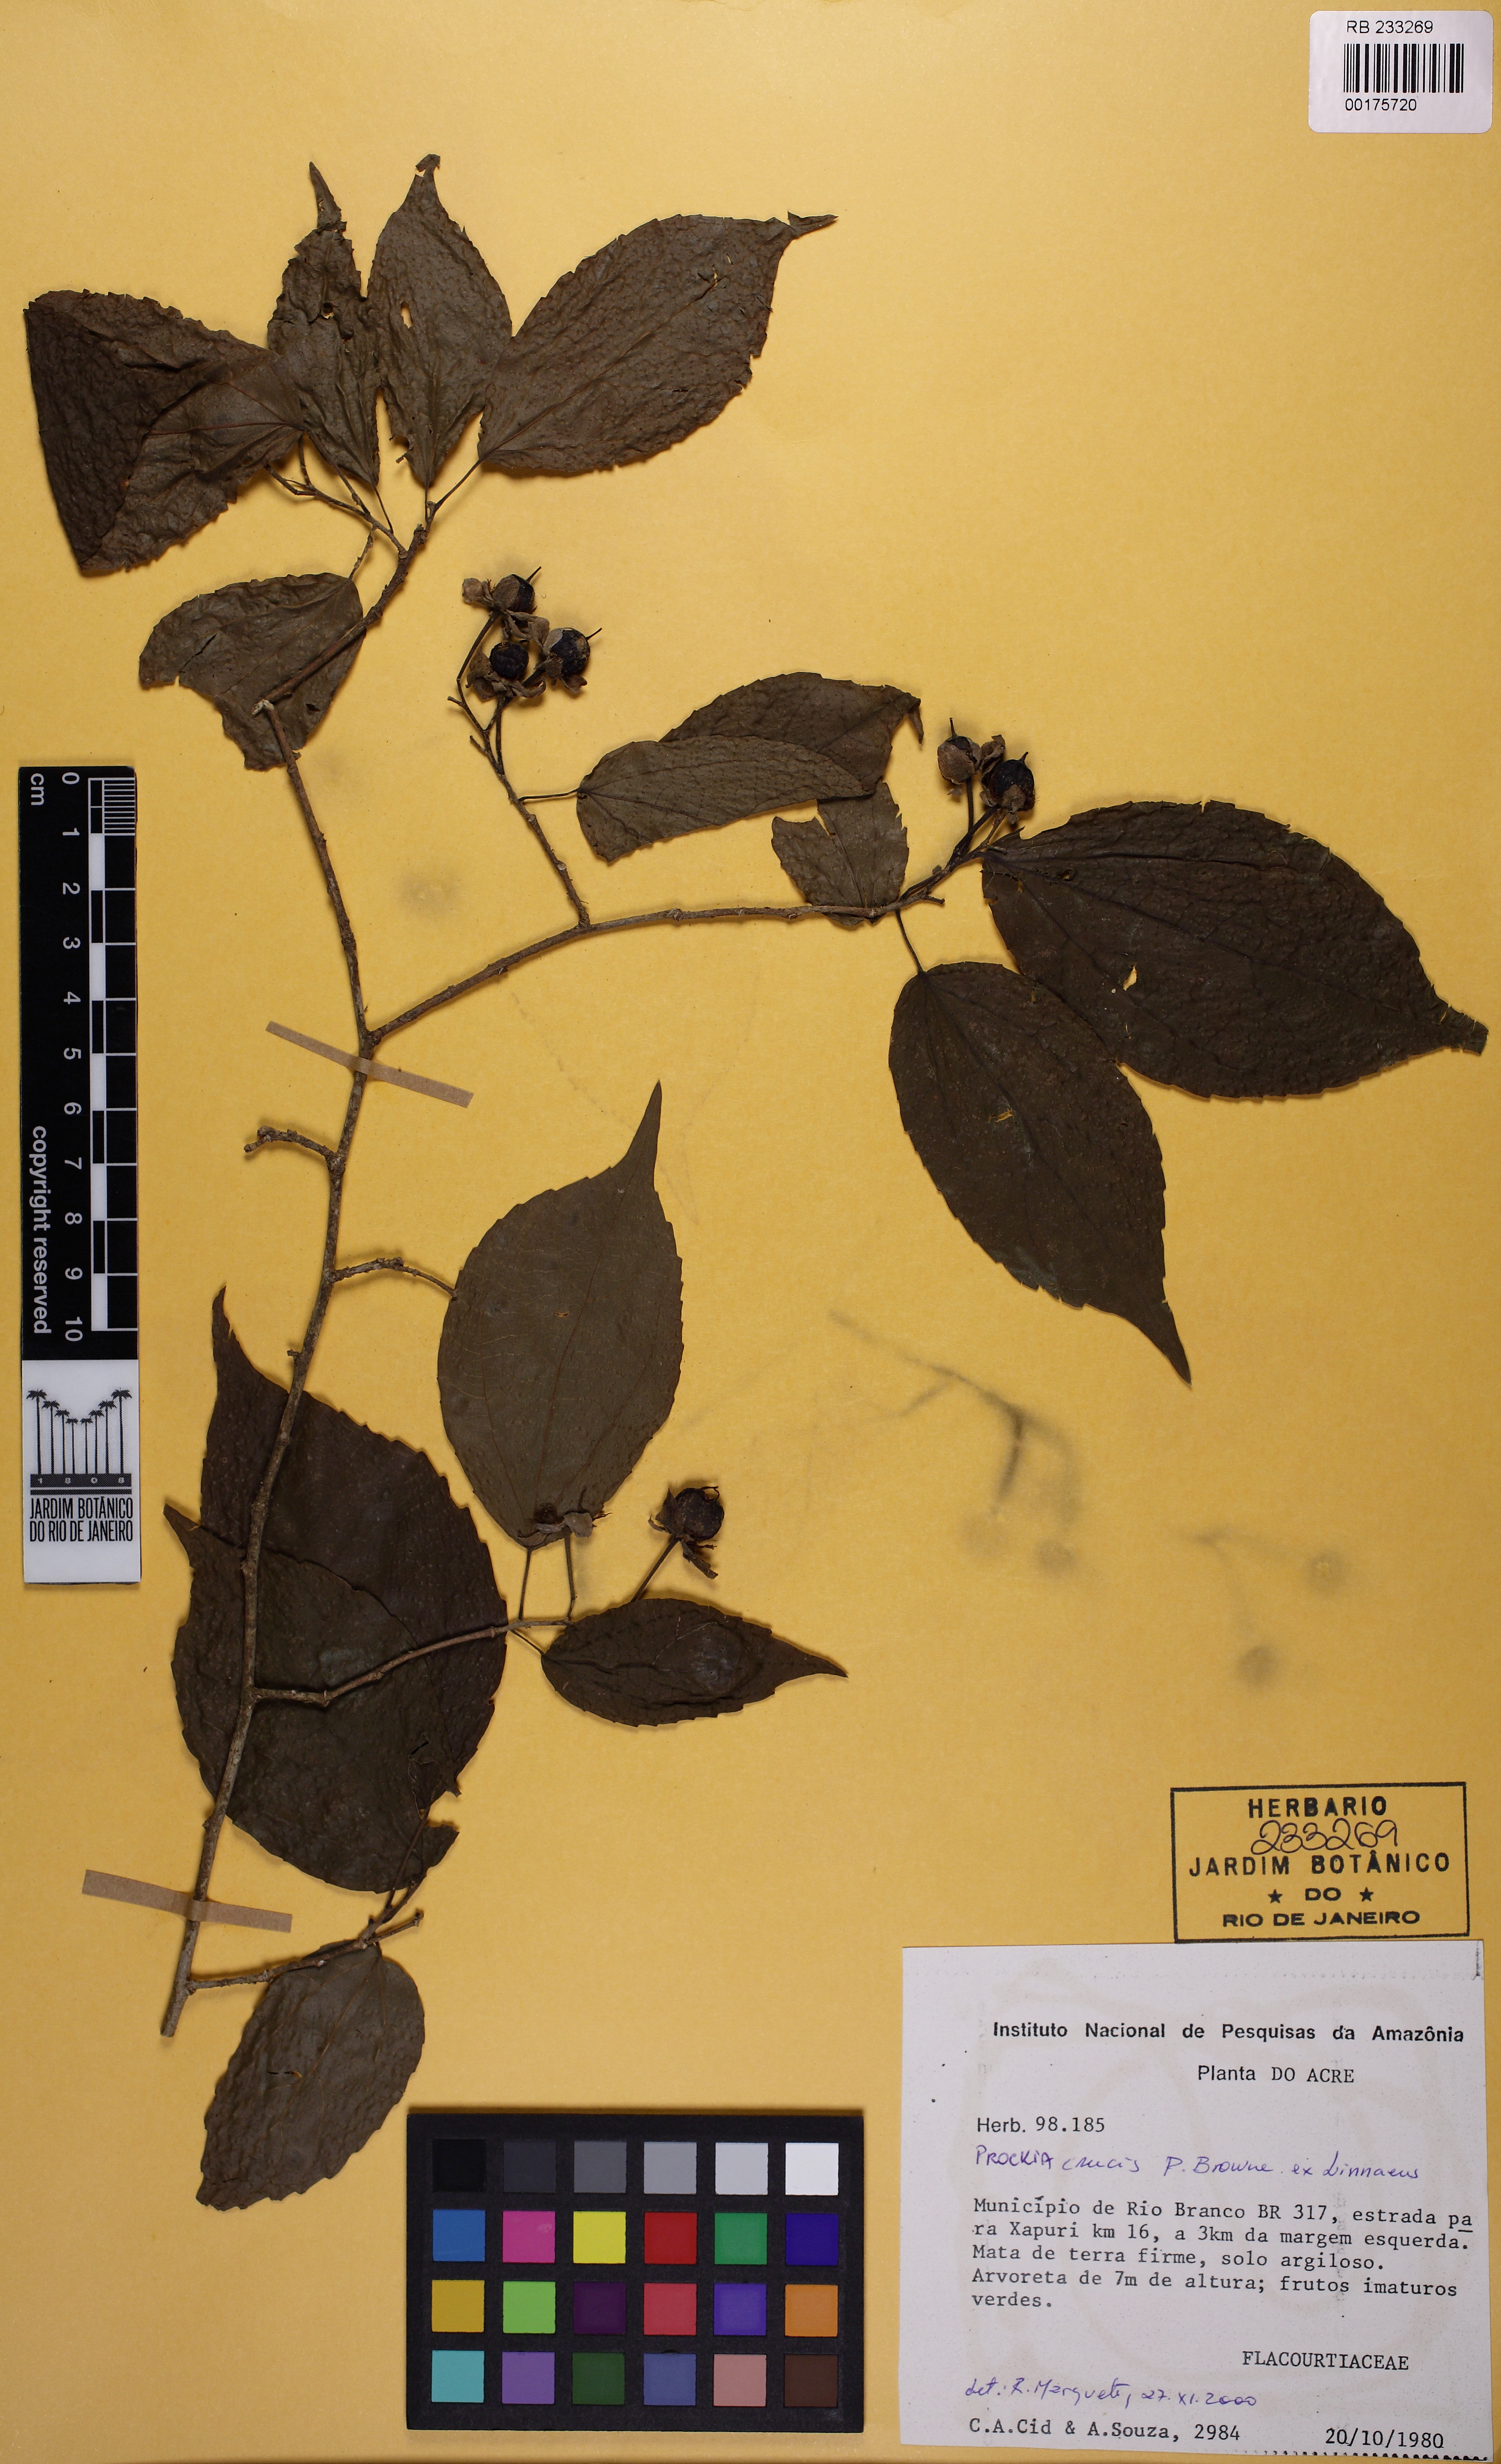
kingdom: Plantae
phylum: Tracheophyta
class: Magnoliopsida
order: Malpighiales
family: Salicaceae
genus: Prockia
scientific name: Prockia crucis
